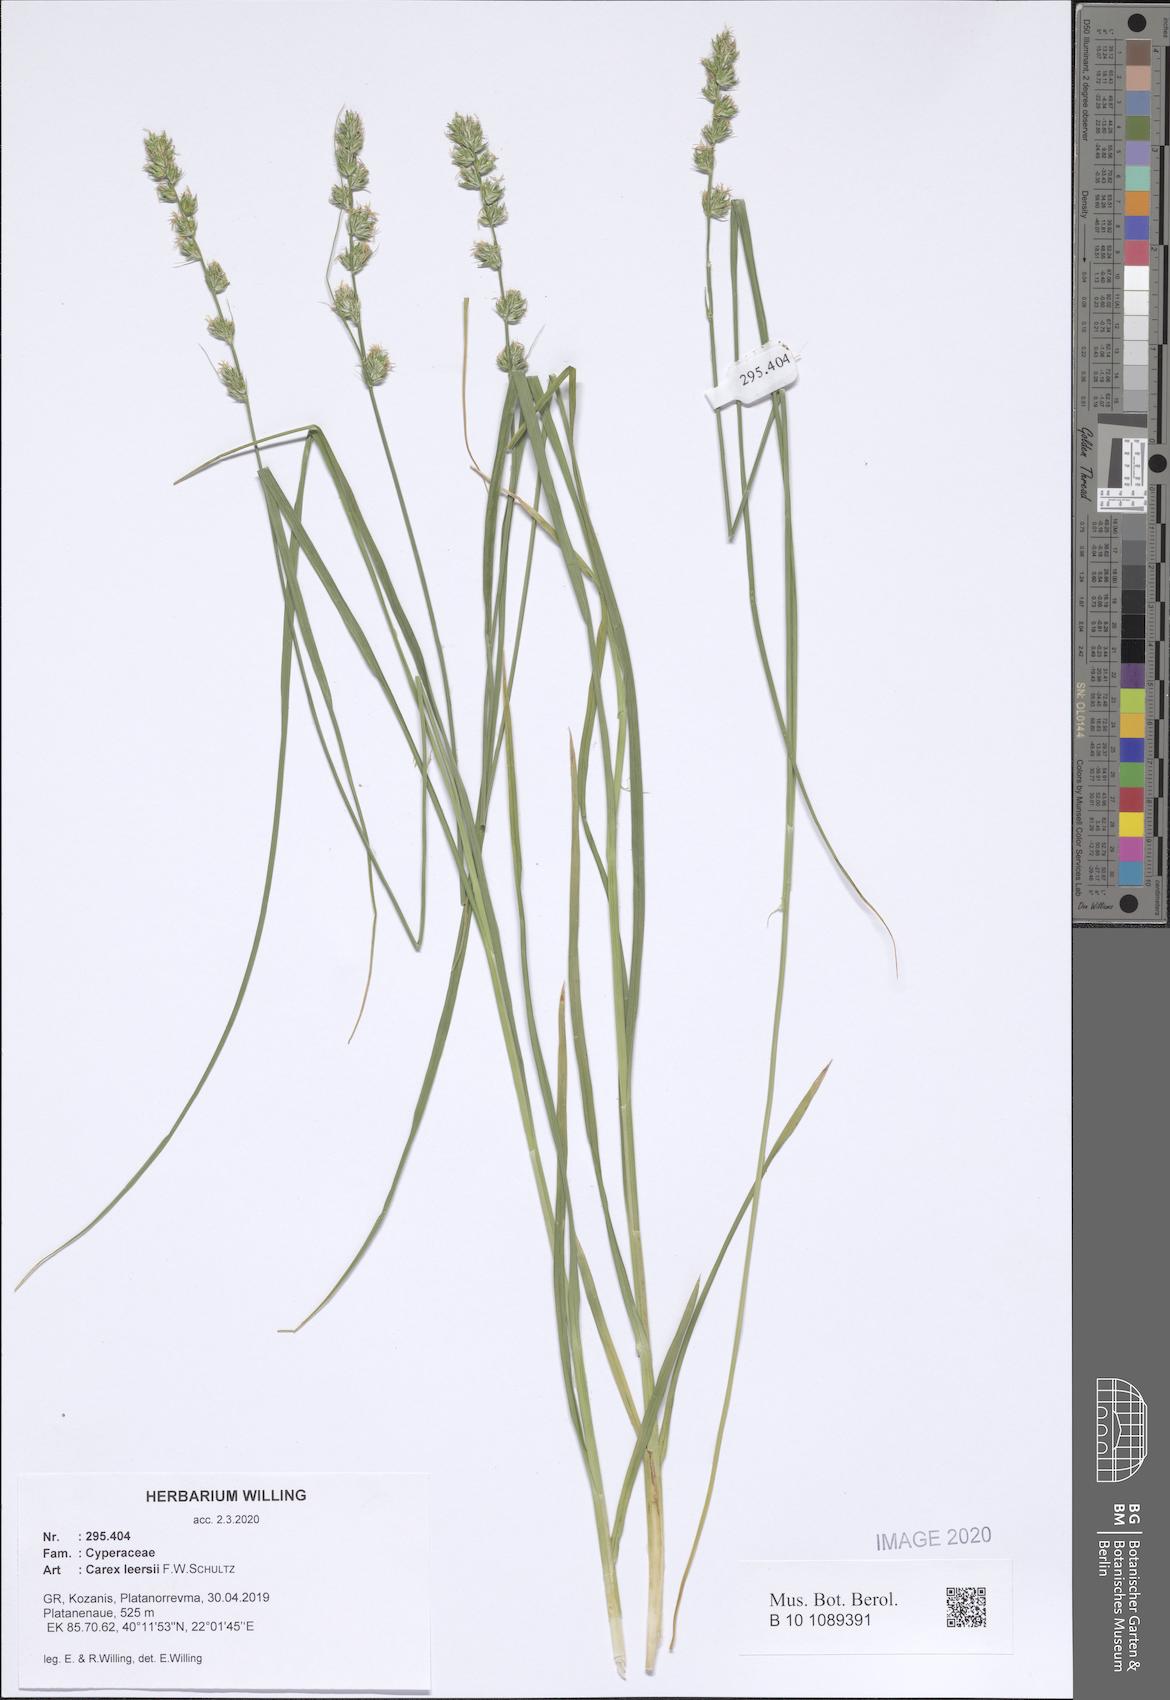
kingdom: Plantae
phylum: Tracheophyta
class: Liliopsida
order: Poales
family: Cyperaceae
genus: Carex
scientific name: Carex leersii
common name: Leers' sedge
